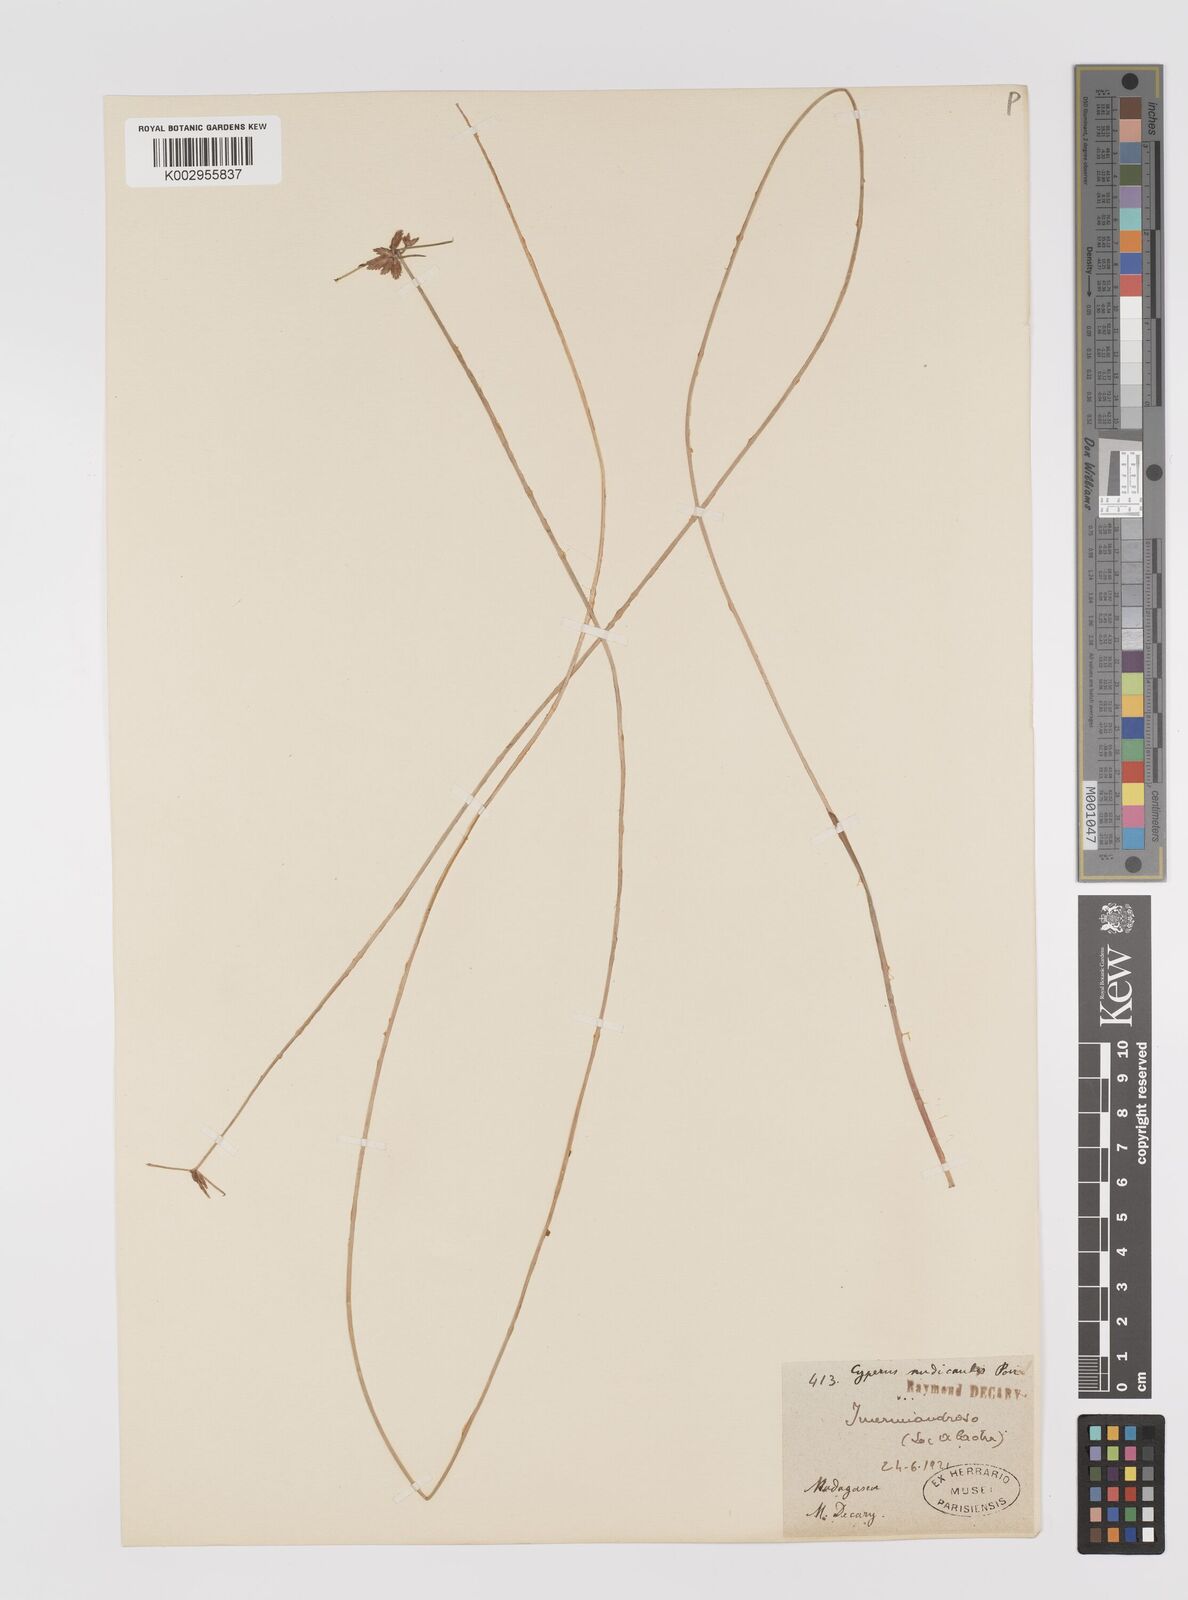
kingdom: Plantae
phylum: Tracheophyta
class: Liliopsida
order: Poales
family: Cyperaceae
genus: Cyperus
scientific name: Cyperus compressus
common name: Poorland flatsedge
